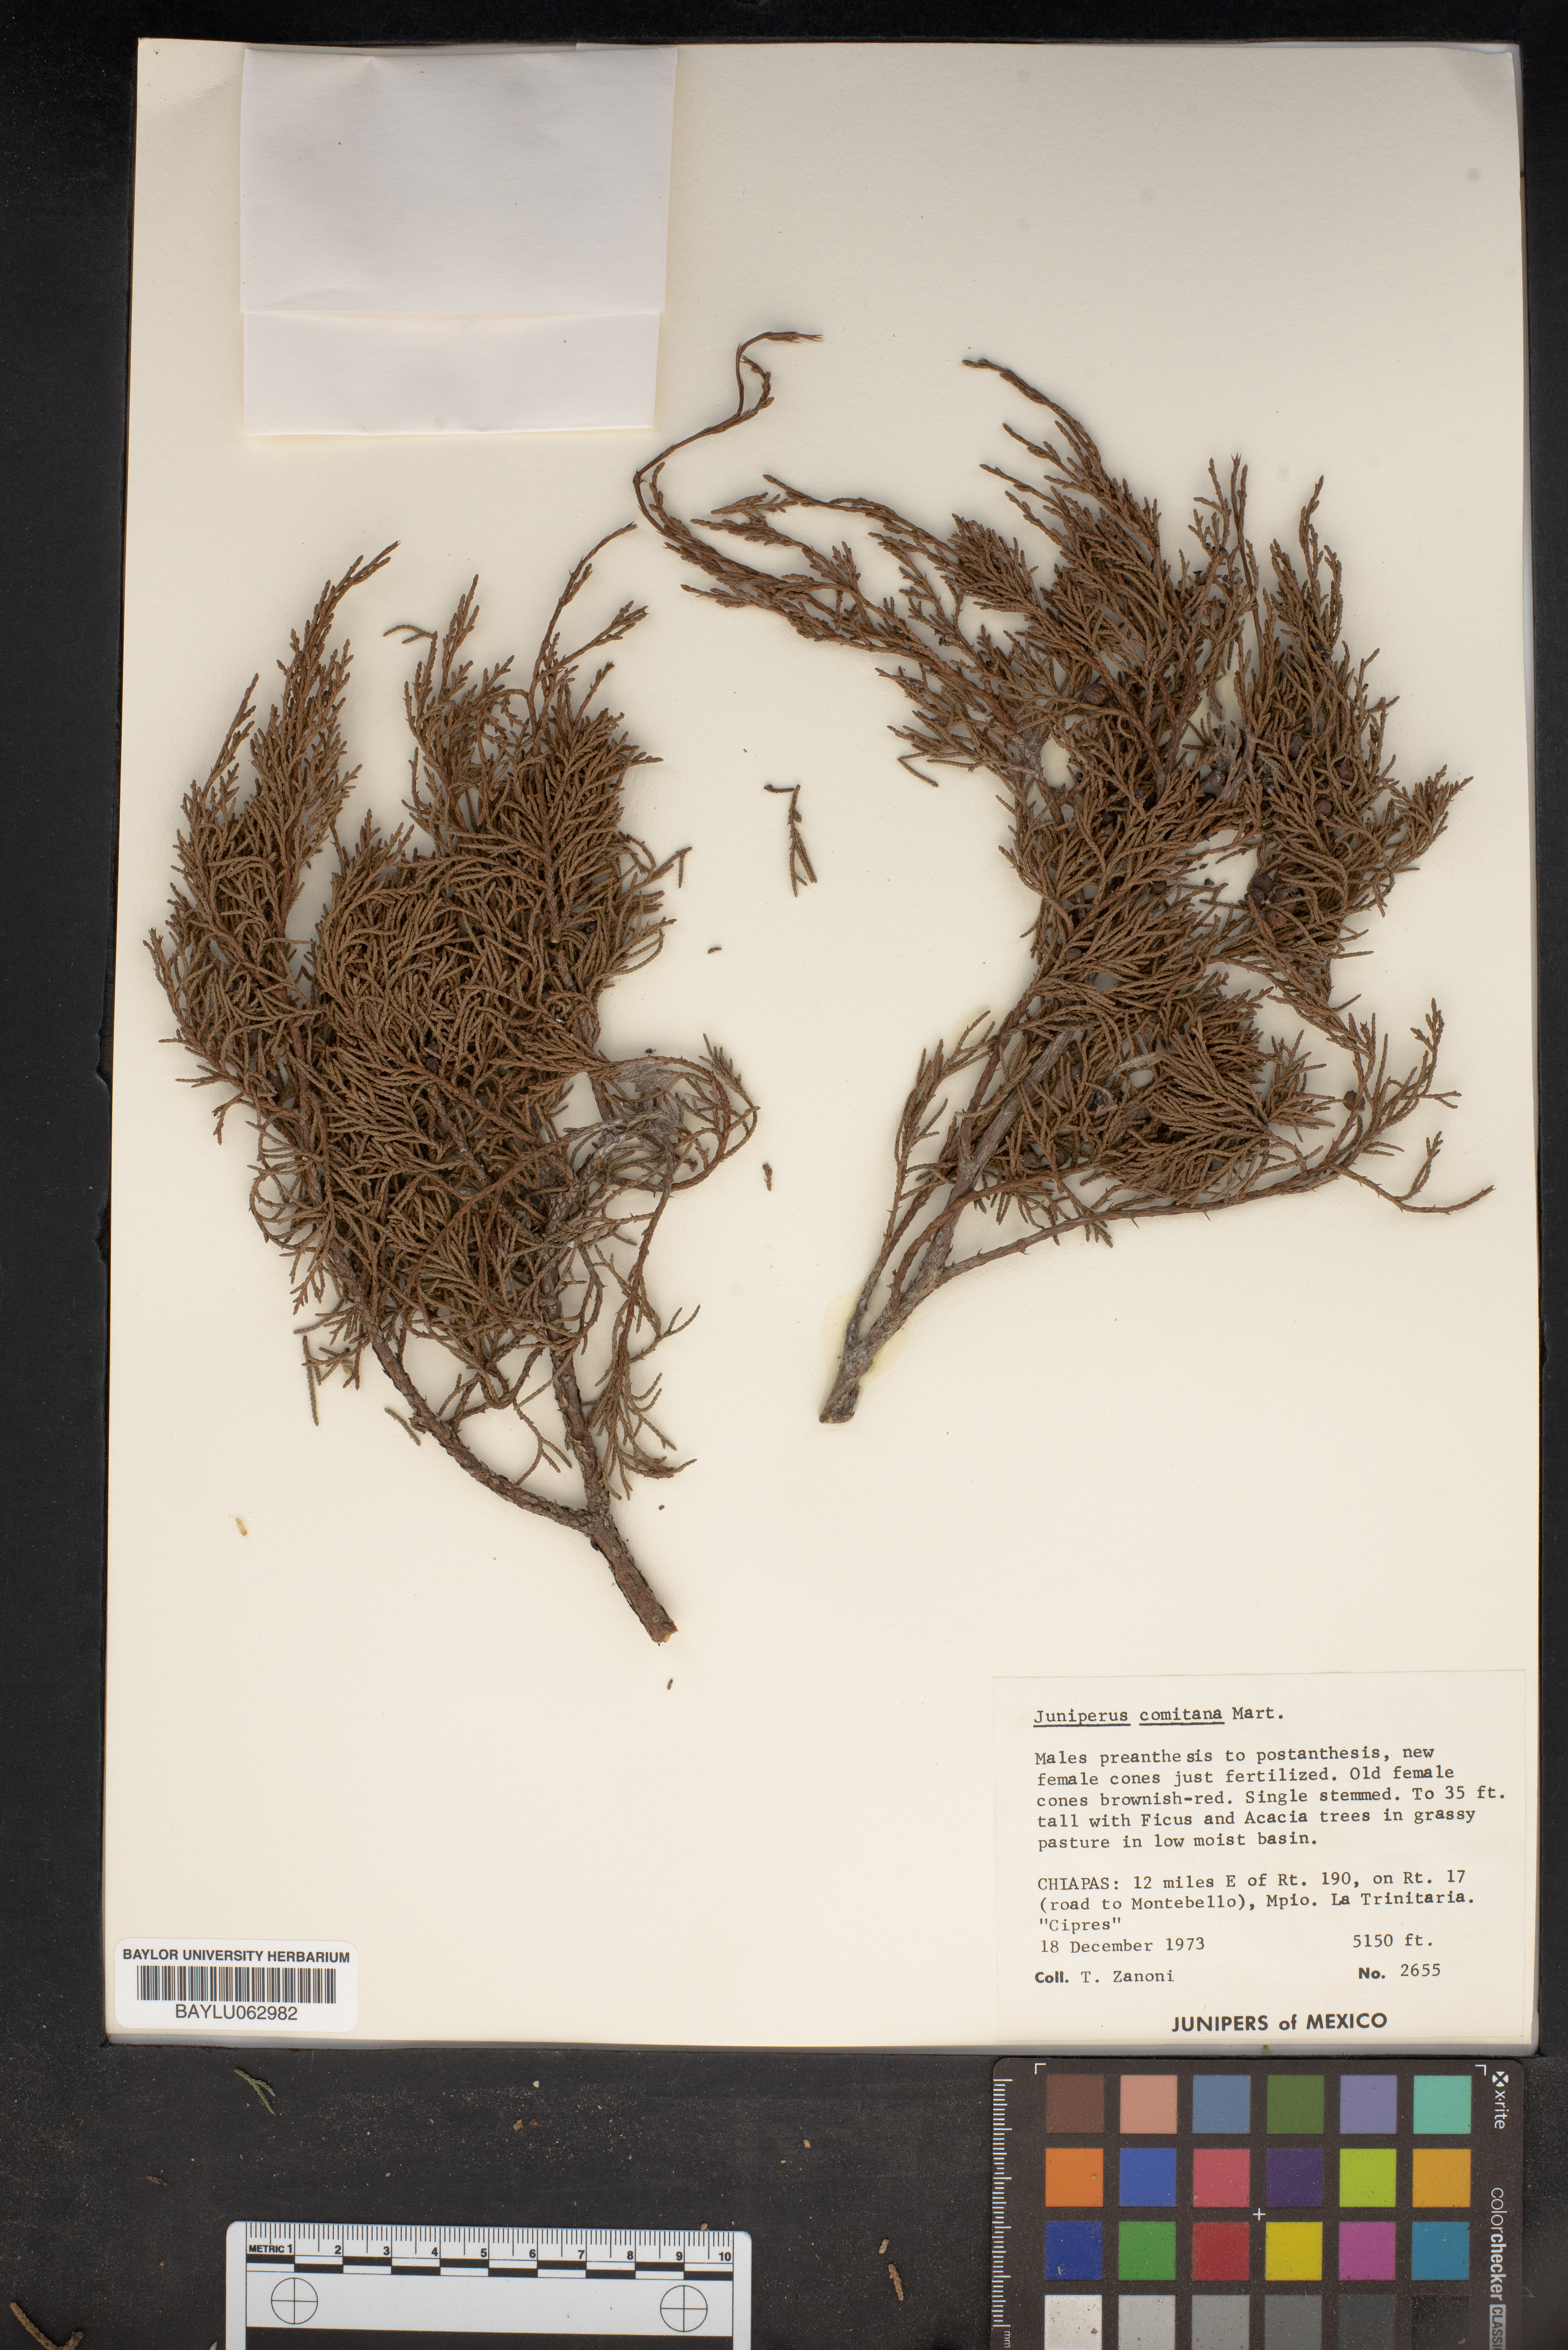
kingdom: Plantae
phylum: Tracheophyta
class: Pinopsida
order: Pinales
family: Cupressaceae
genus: Juniperus
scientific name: Juniperus comitana
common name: Comitan juniper
